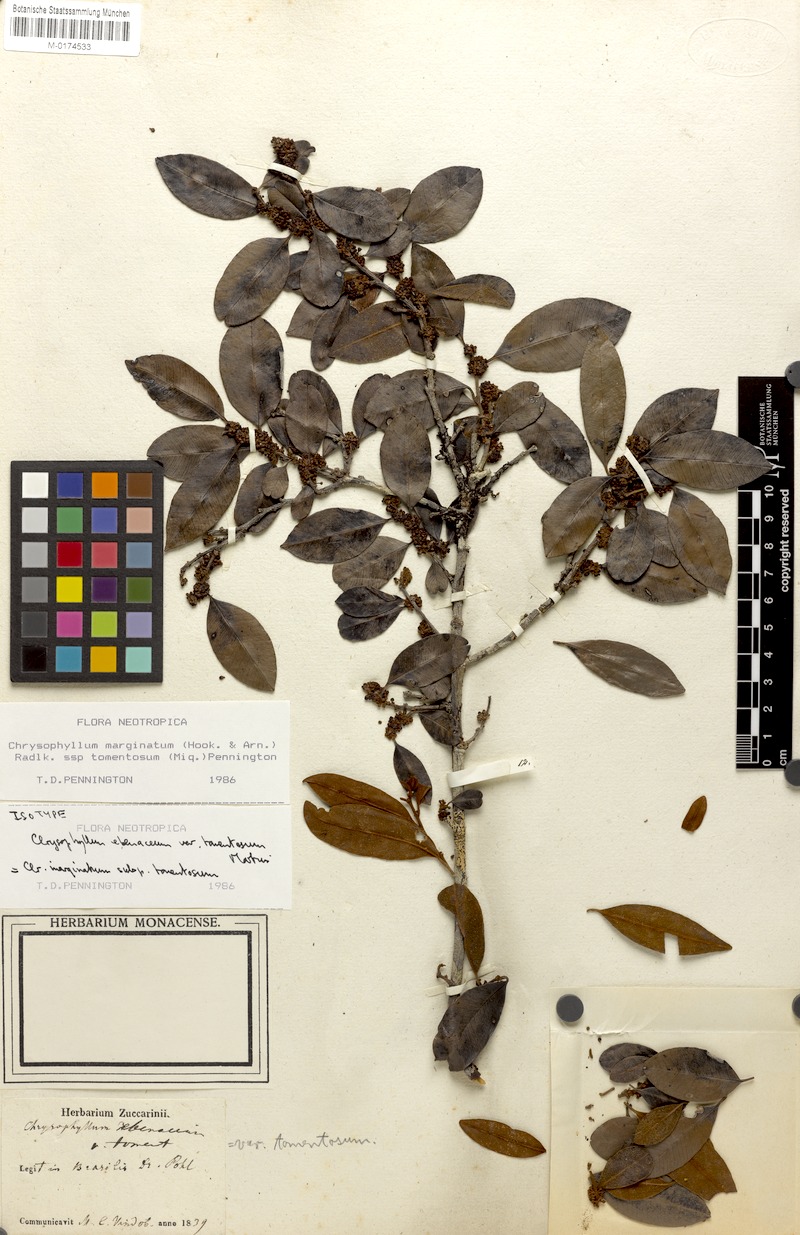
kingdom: Plantae
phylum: Tracheophyta
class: Magnoliopsida
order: Ericales
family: Sapotaceae
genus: Chrysophyllum
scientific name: Chrysophyllum marginatum
